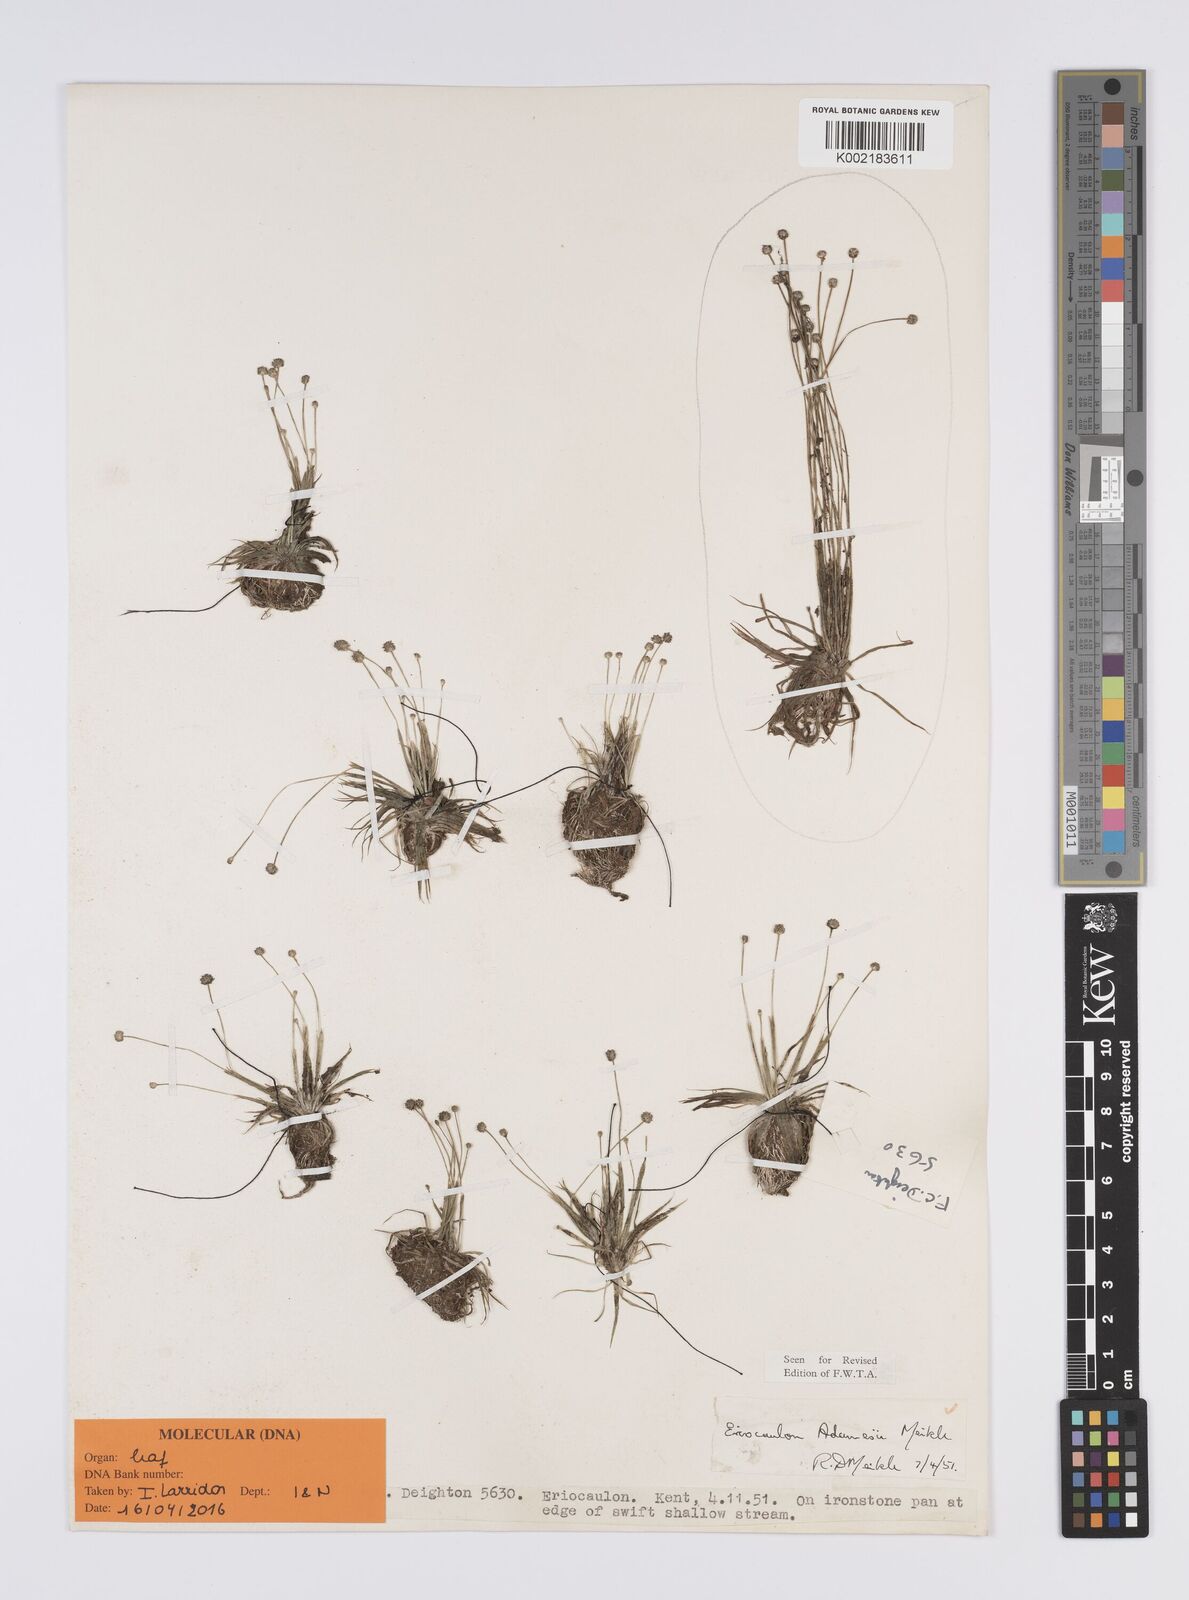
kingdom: Plantae
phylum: Tracheophyta
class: Liliopsida
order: Poales
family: Eriocaulaceae
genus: Eriocaulon
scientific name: Eriocaulon adamesii
